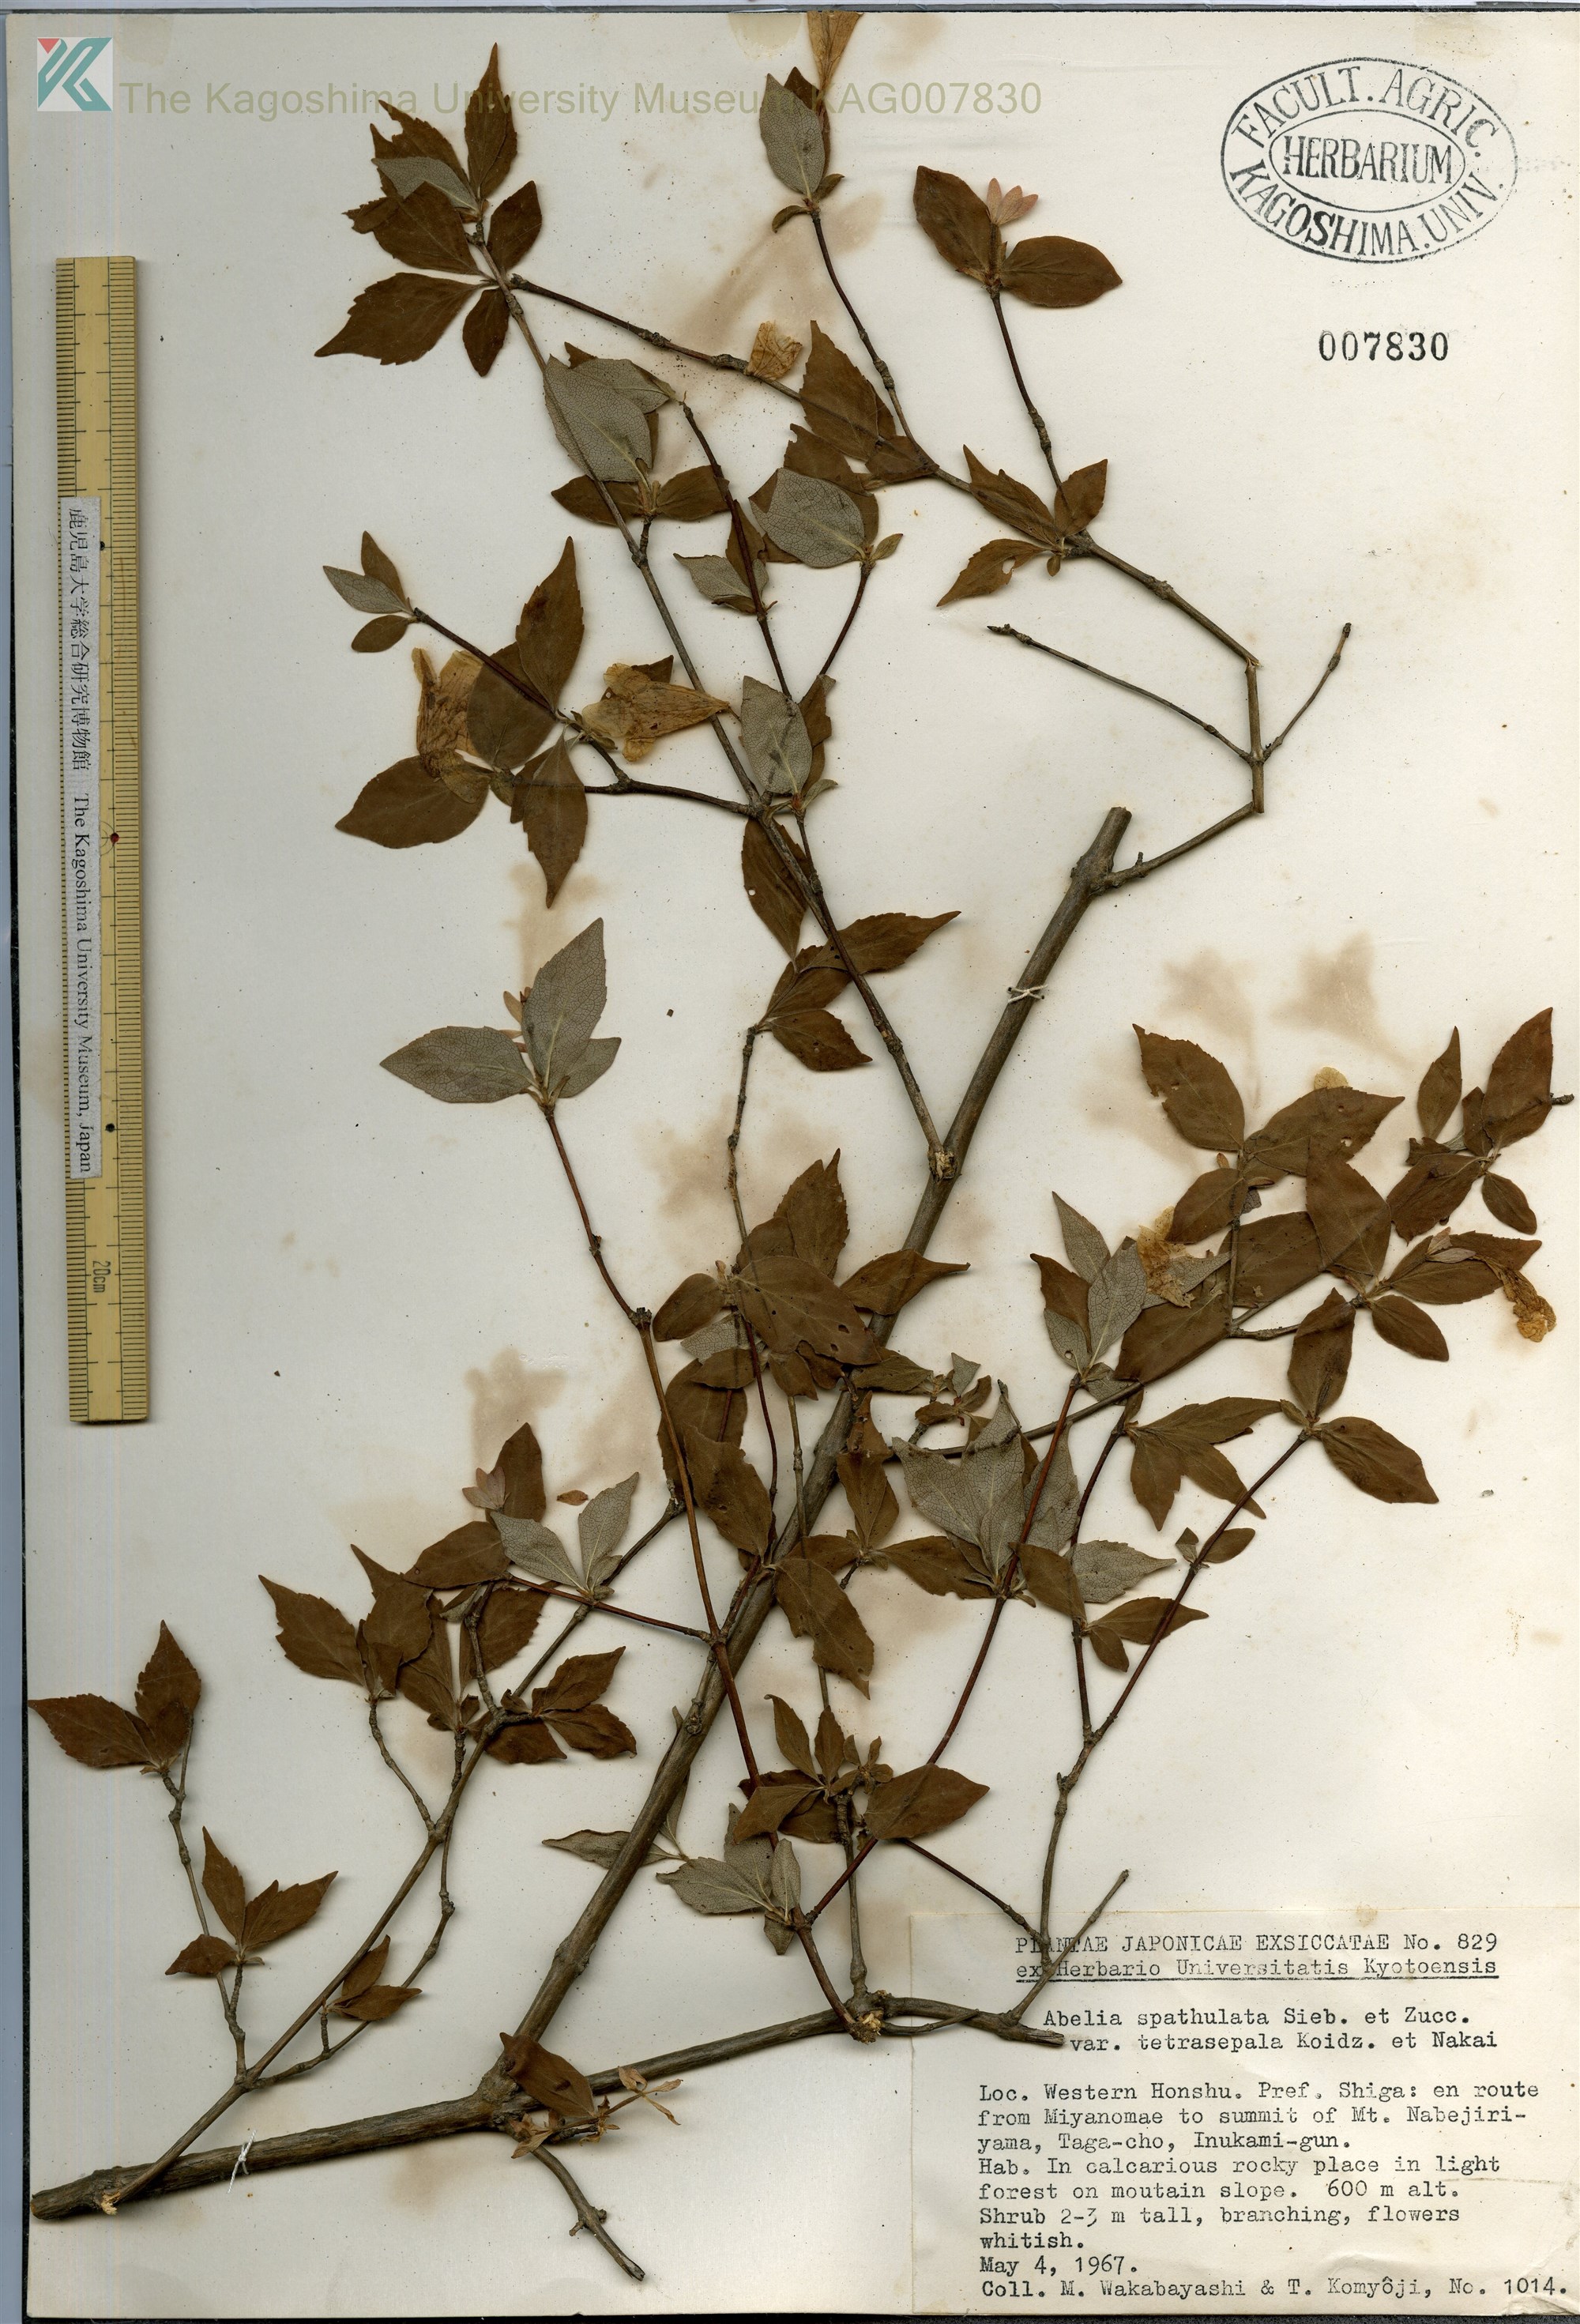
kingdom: Plantae
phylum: Tracheophyta
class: Magnoliopsida
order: Dipsacales
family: Caprifoliaceae
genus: Diabelia
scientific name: Diabelia ionostachya
